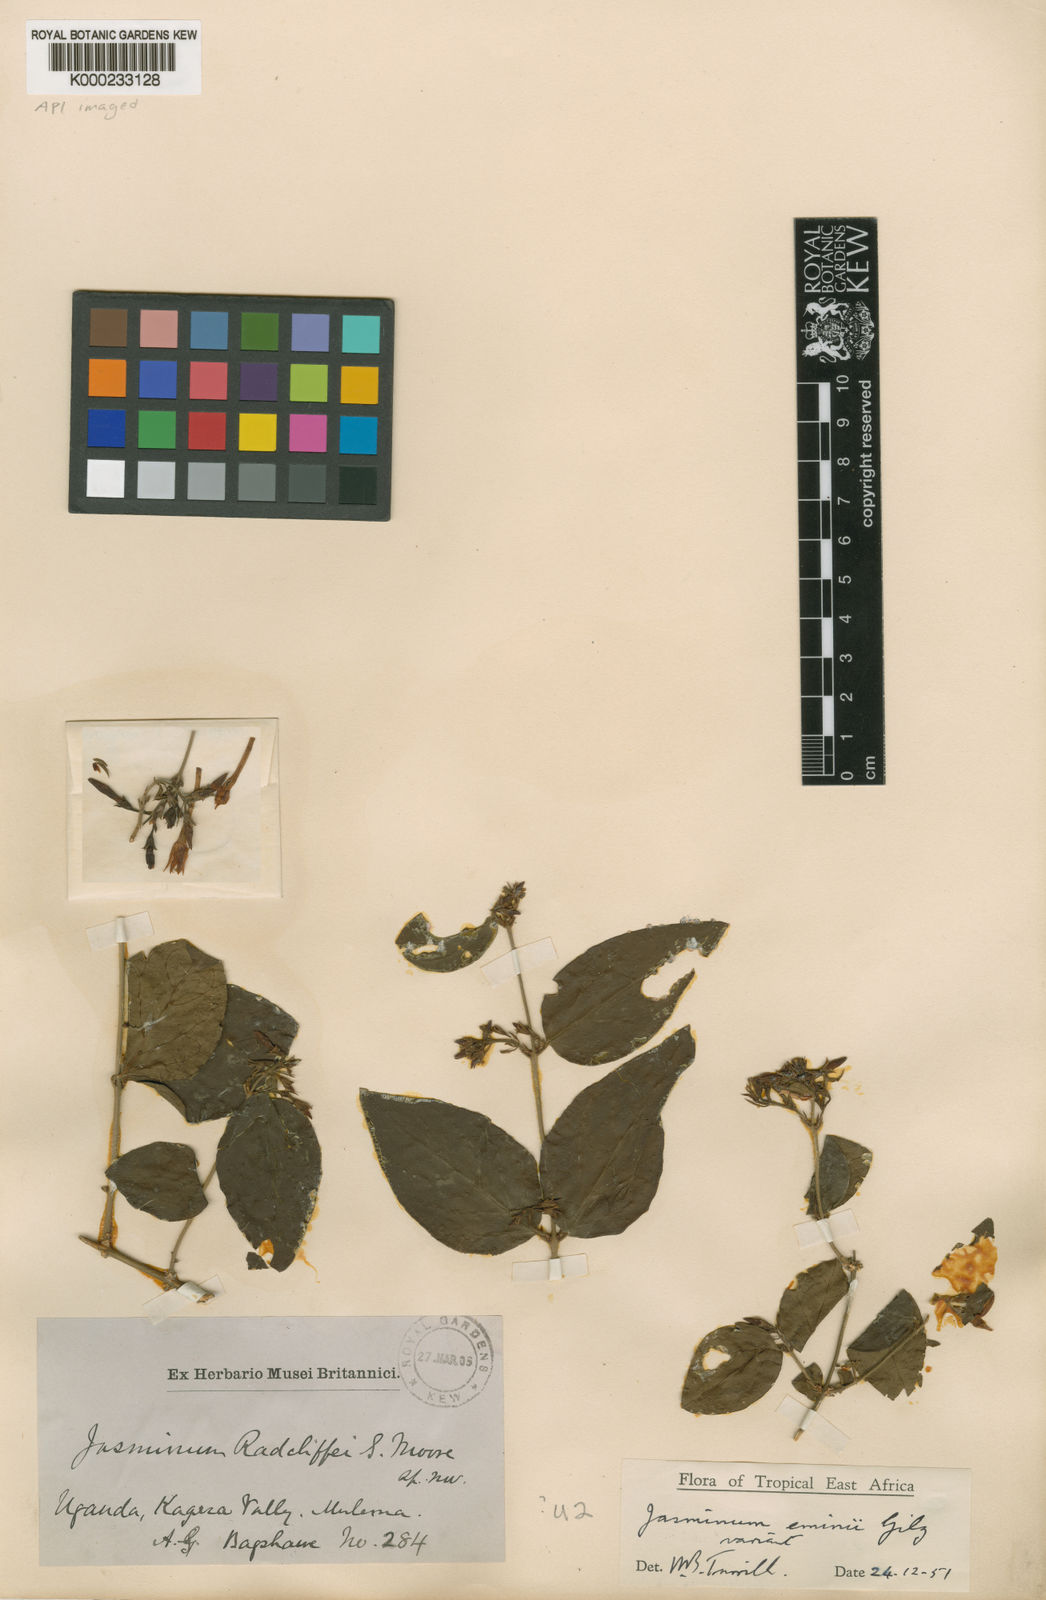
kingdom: Plantae
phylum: Tracheophyta
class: Magnoliopsida
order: Lamiales
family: Oleaceae
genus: Jasminum
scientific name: Jasminum schimperi
